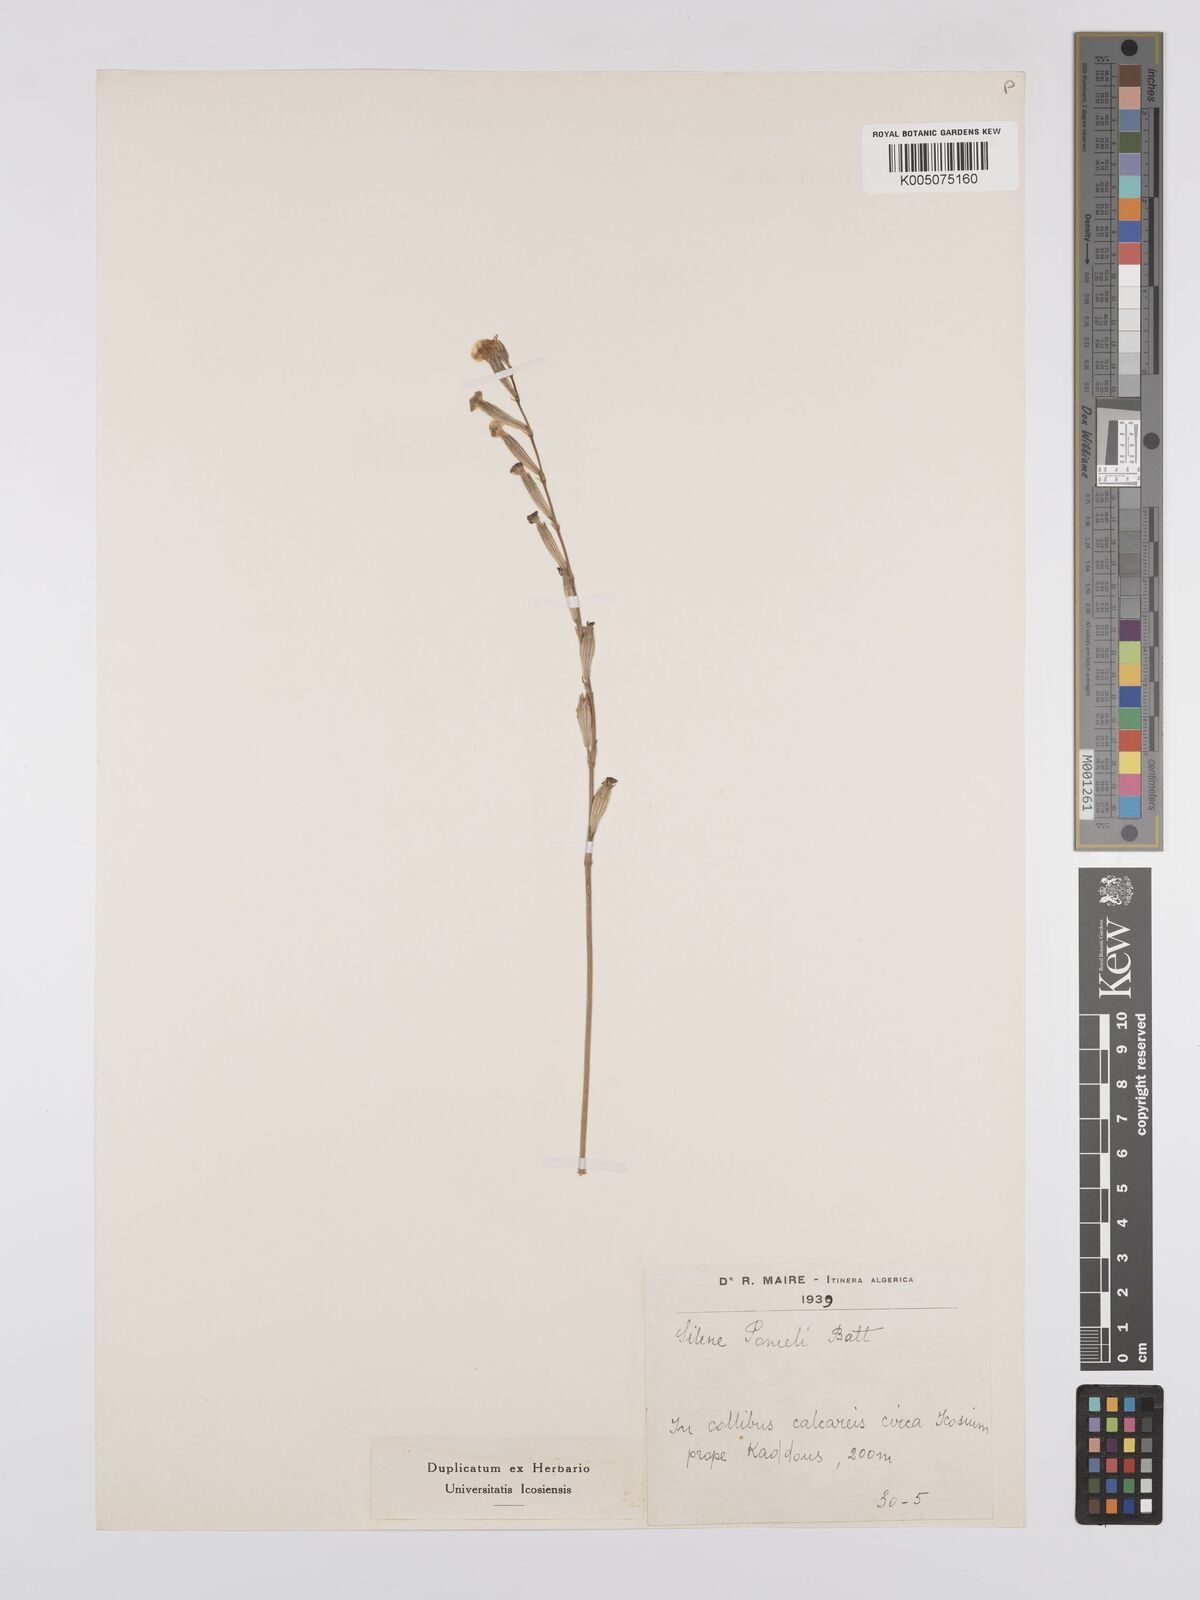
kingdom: Plantae
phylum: Tracheophyta
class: Magnoliopsida
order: Caryophyllales
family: Caryophyllaceae
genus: Silene
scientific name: Silene pomelii
